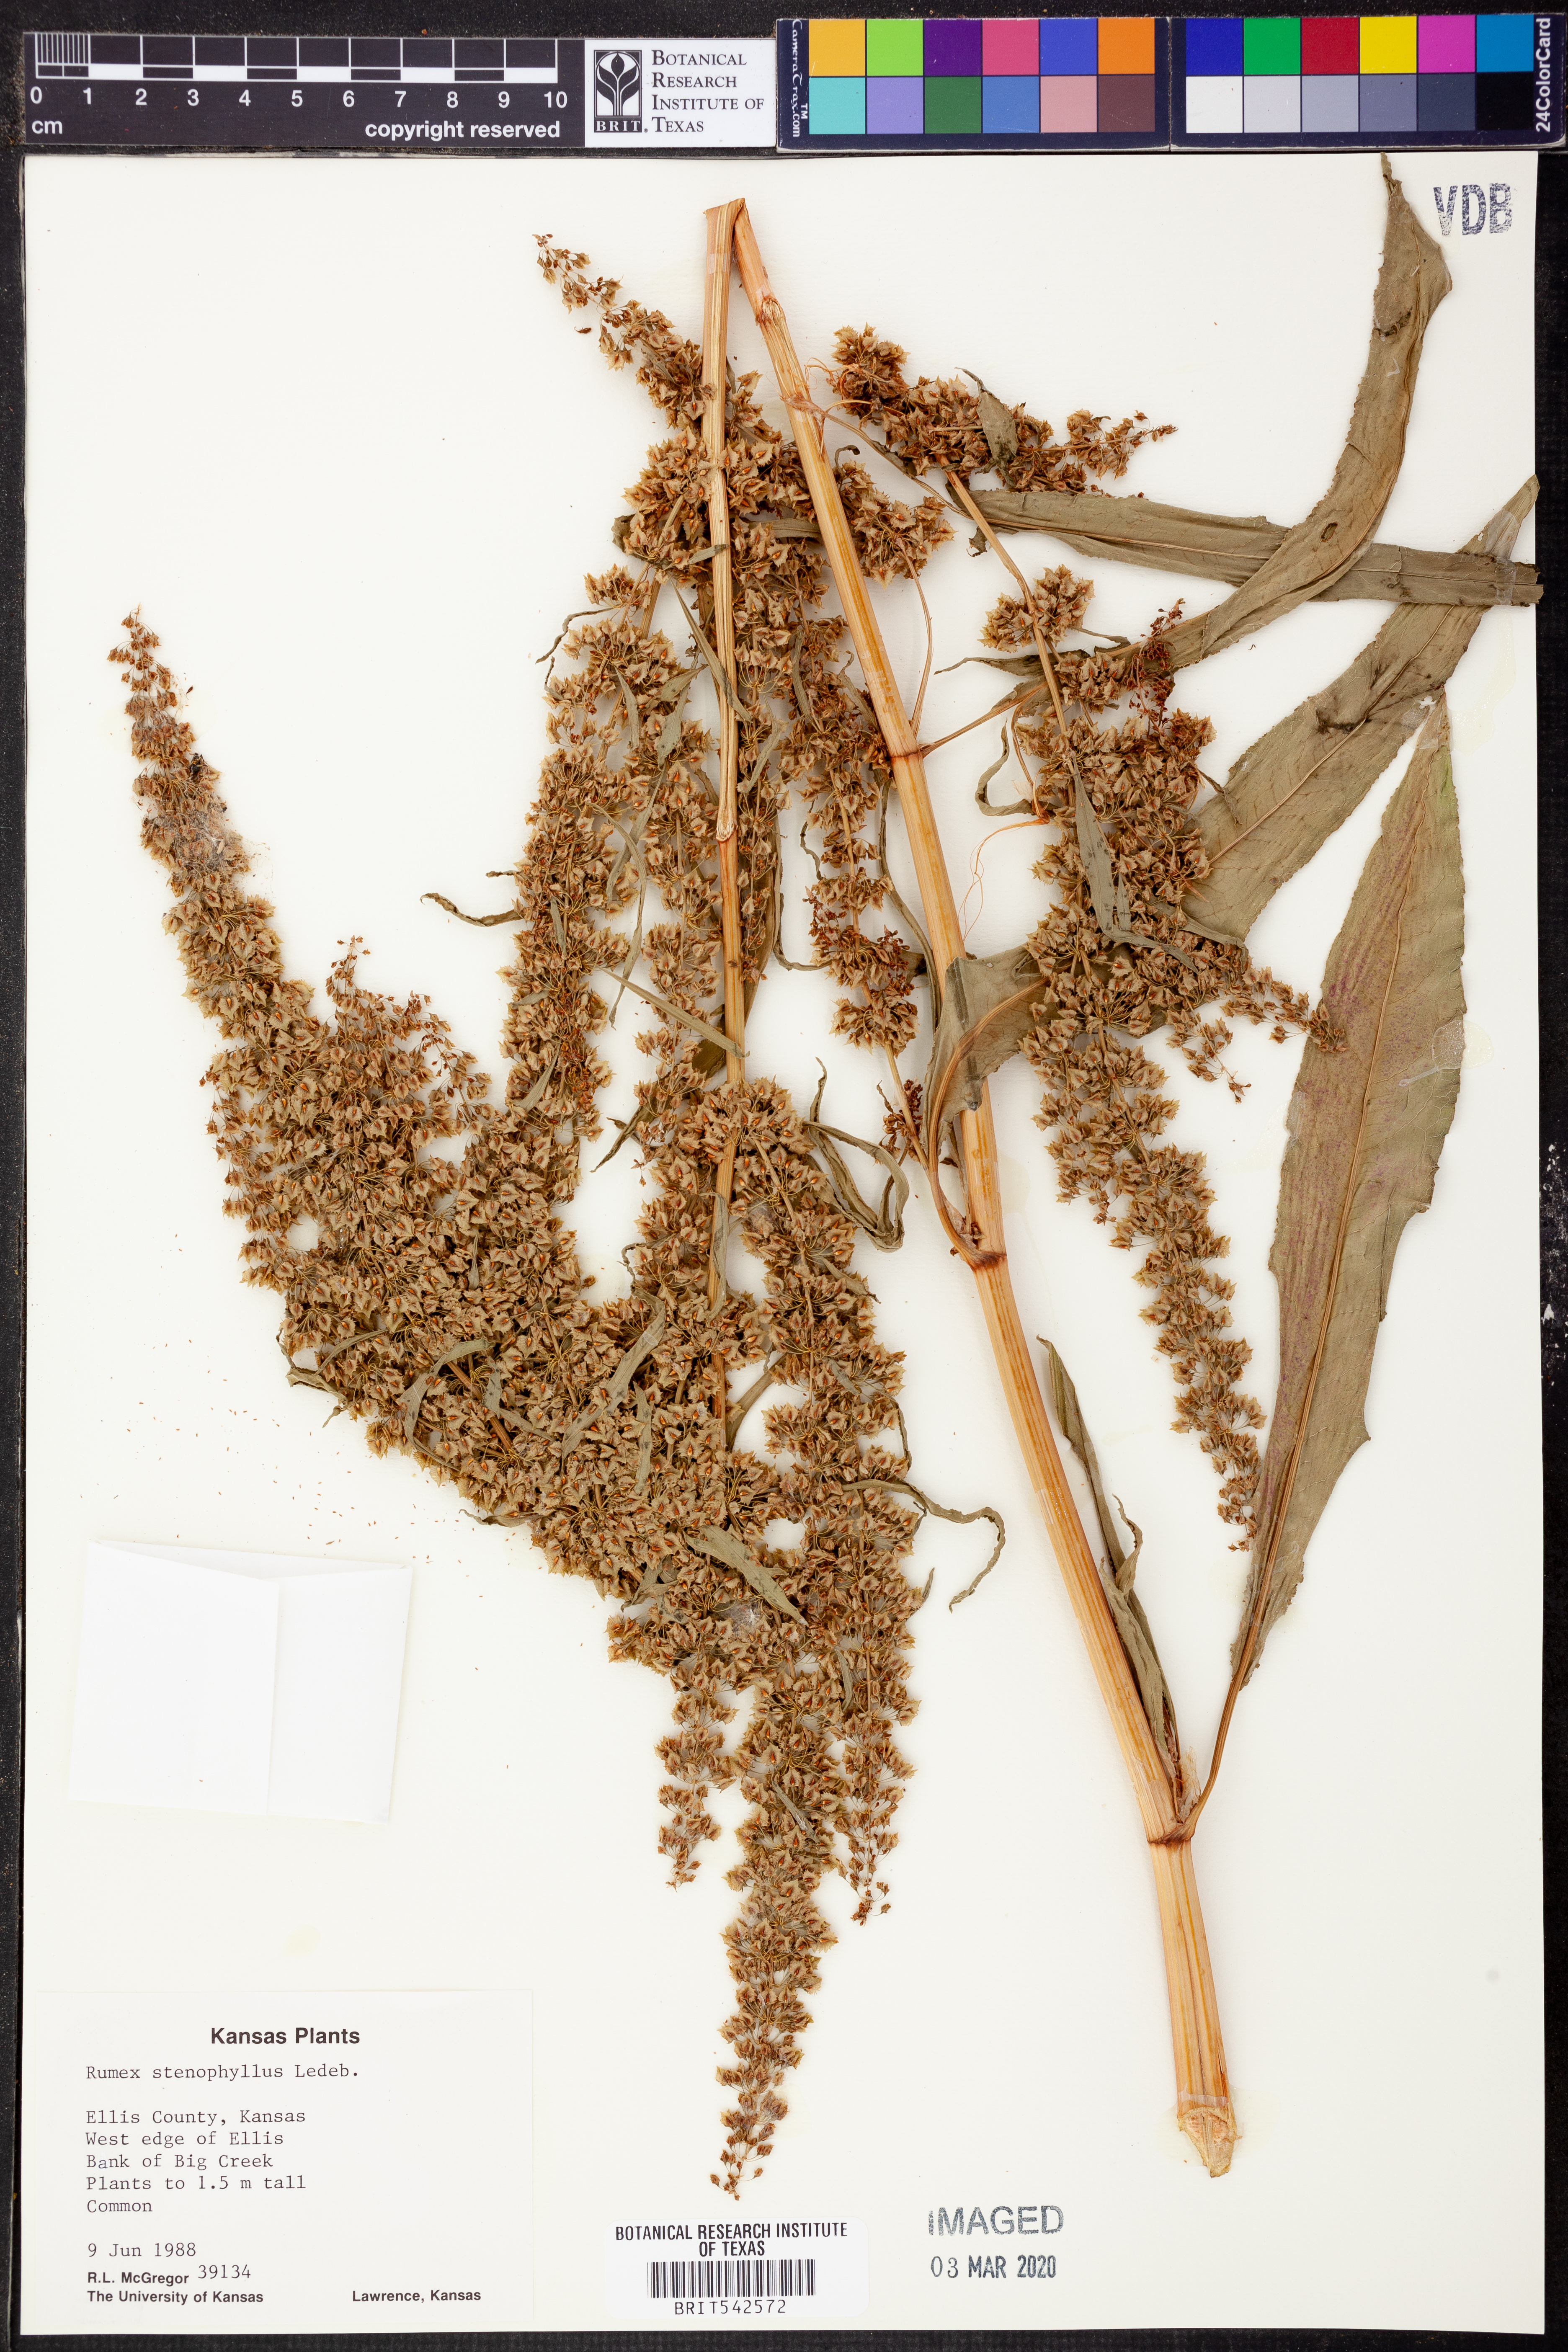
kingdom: Plantae
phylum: Tracheophyta
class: Magnoliopsida
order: Caryophyllales
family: Polygonaceae
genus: Rumex
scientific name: Rumex stenophyllus
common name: Narrowleaf dock
